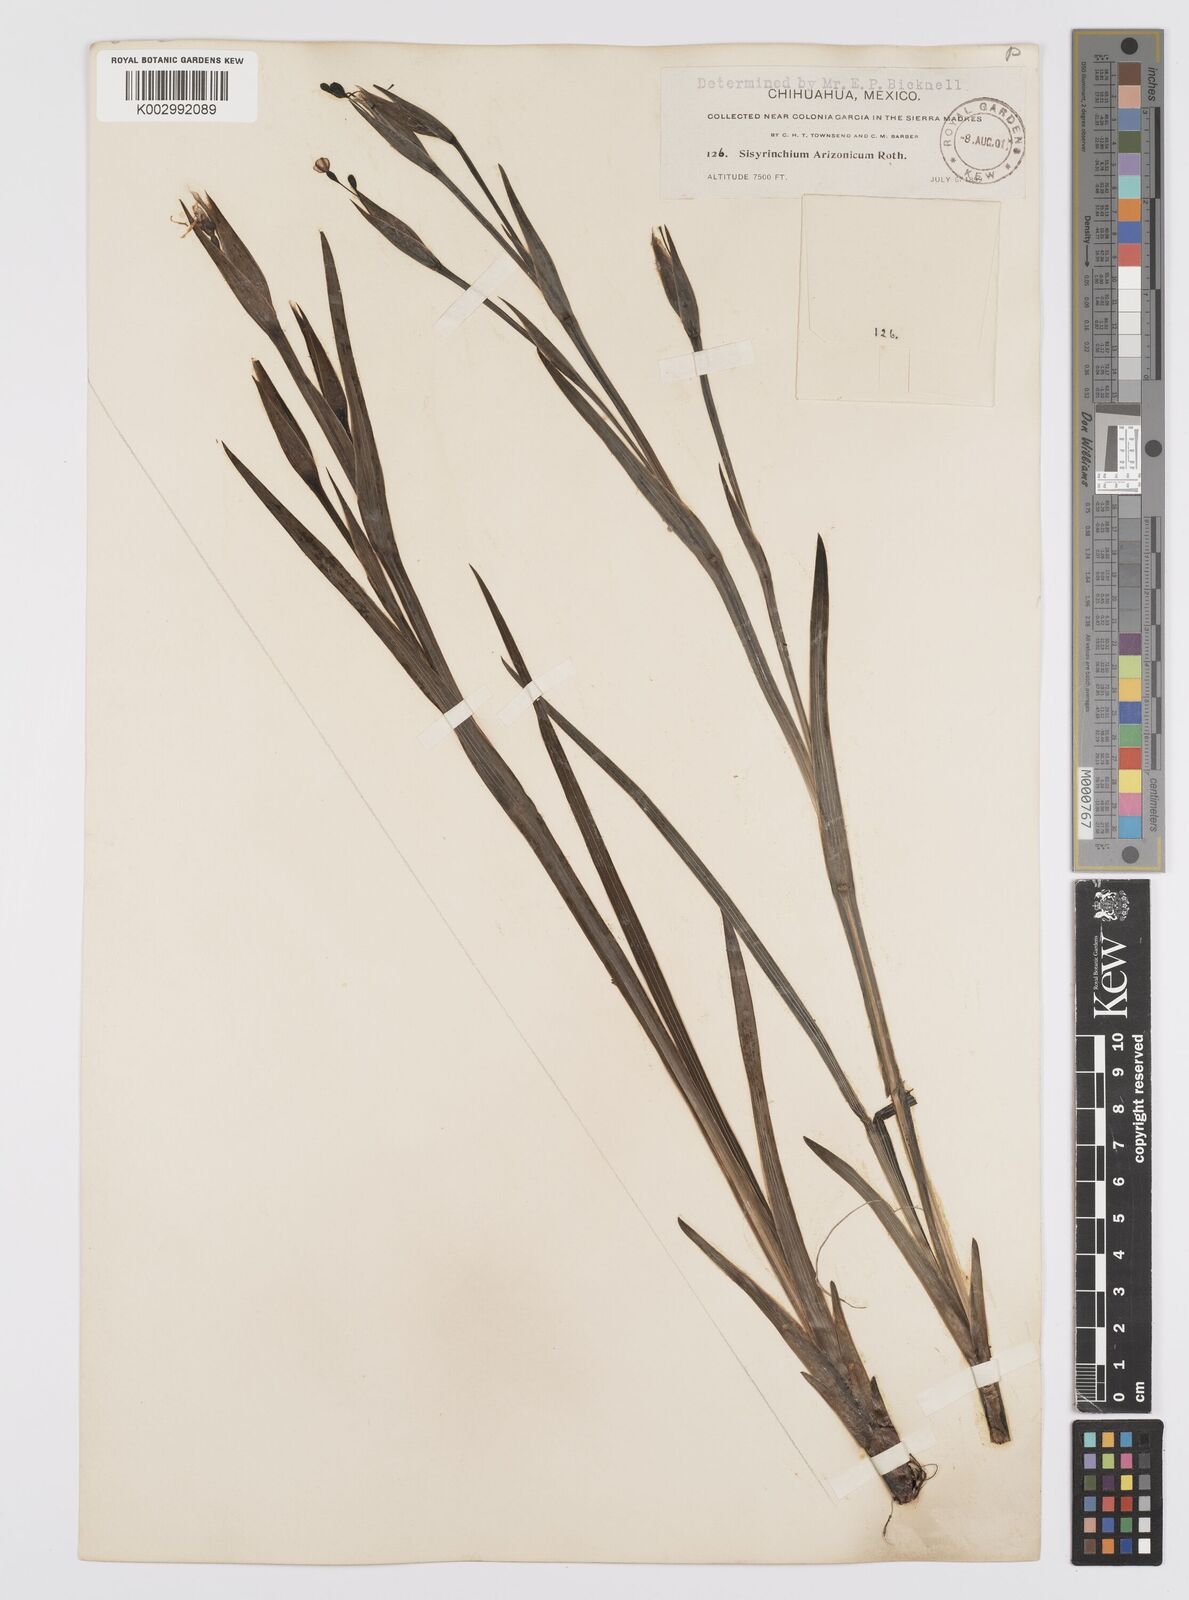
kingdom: Plantae
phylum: Tracheophyta
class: Liliopsida
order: Asparagales
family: Iridaceae
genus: Sisyrinchium
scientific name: Sisyrinchium arizonicum
